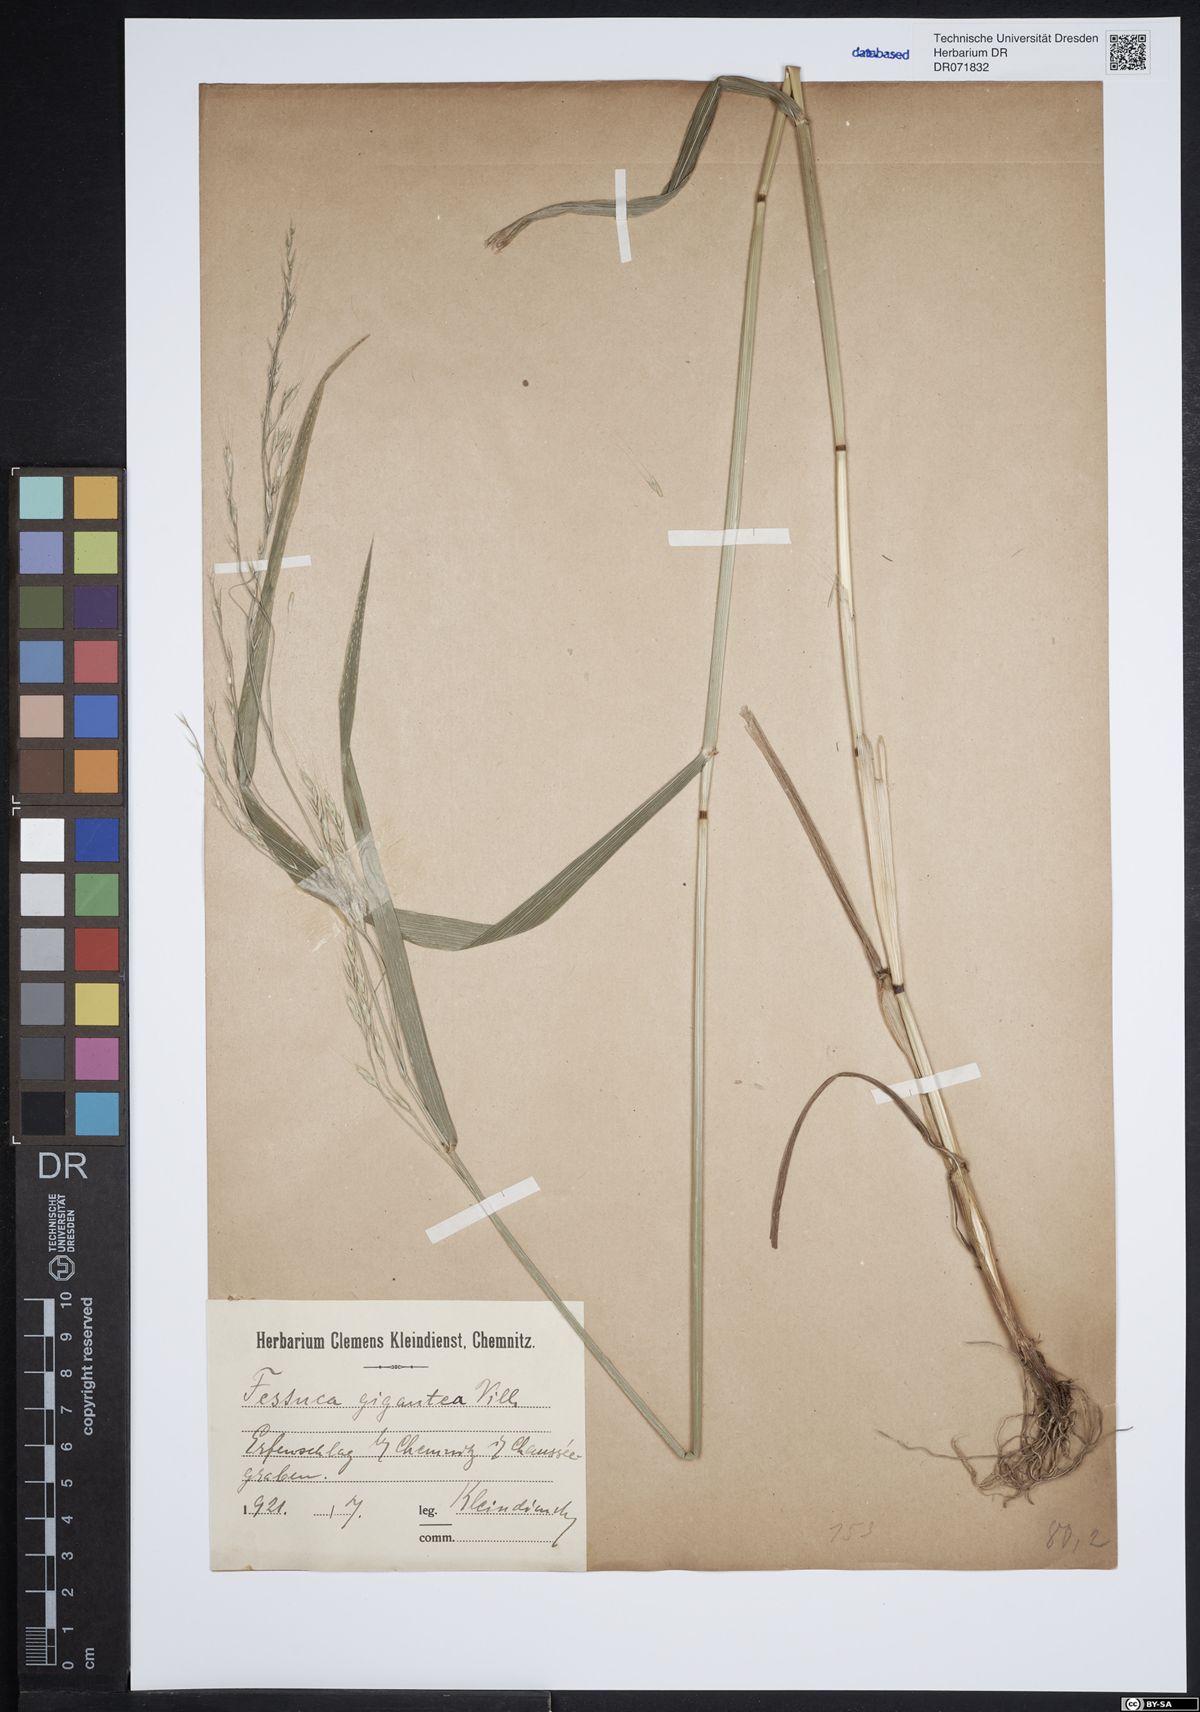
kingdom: Plantae
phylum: Tracheophyta
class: Liliopsida
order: Poales
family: Poaceae
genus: Lolium
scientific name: Lolium giganteum
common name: Giant fescue
